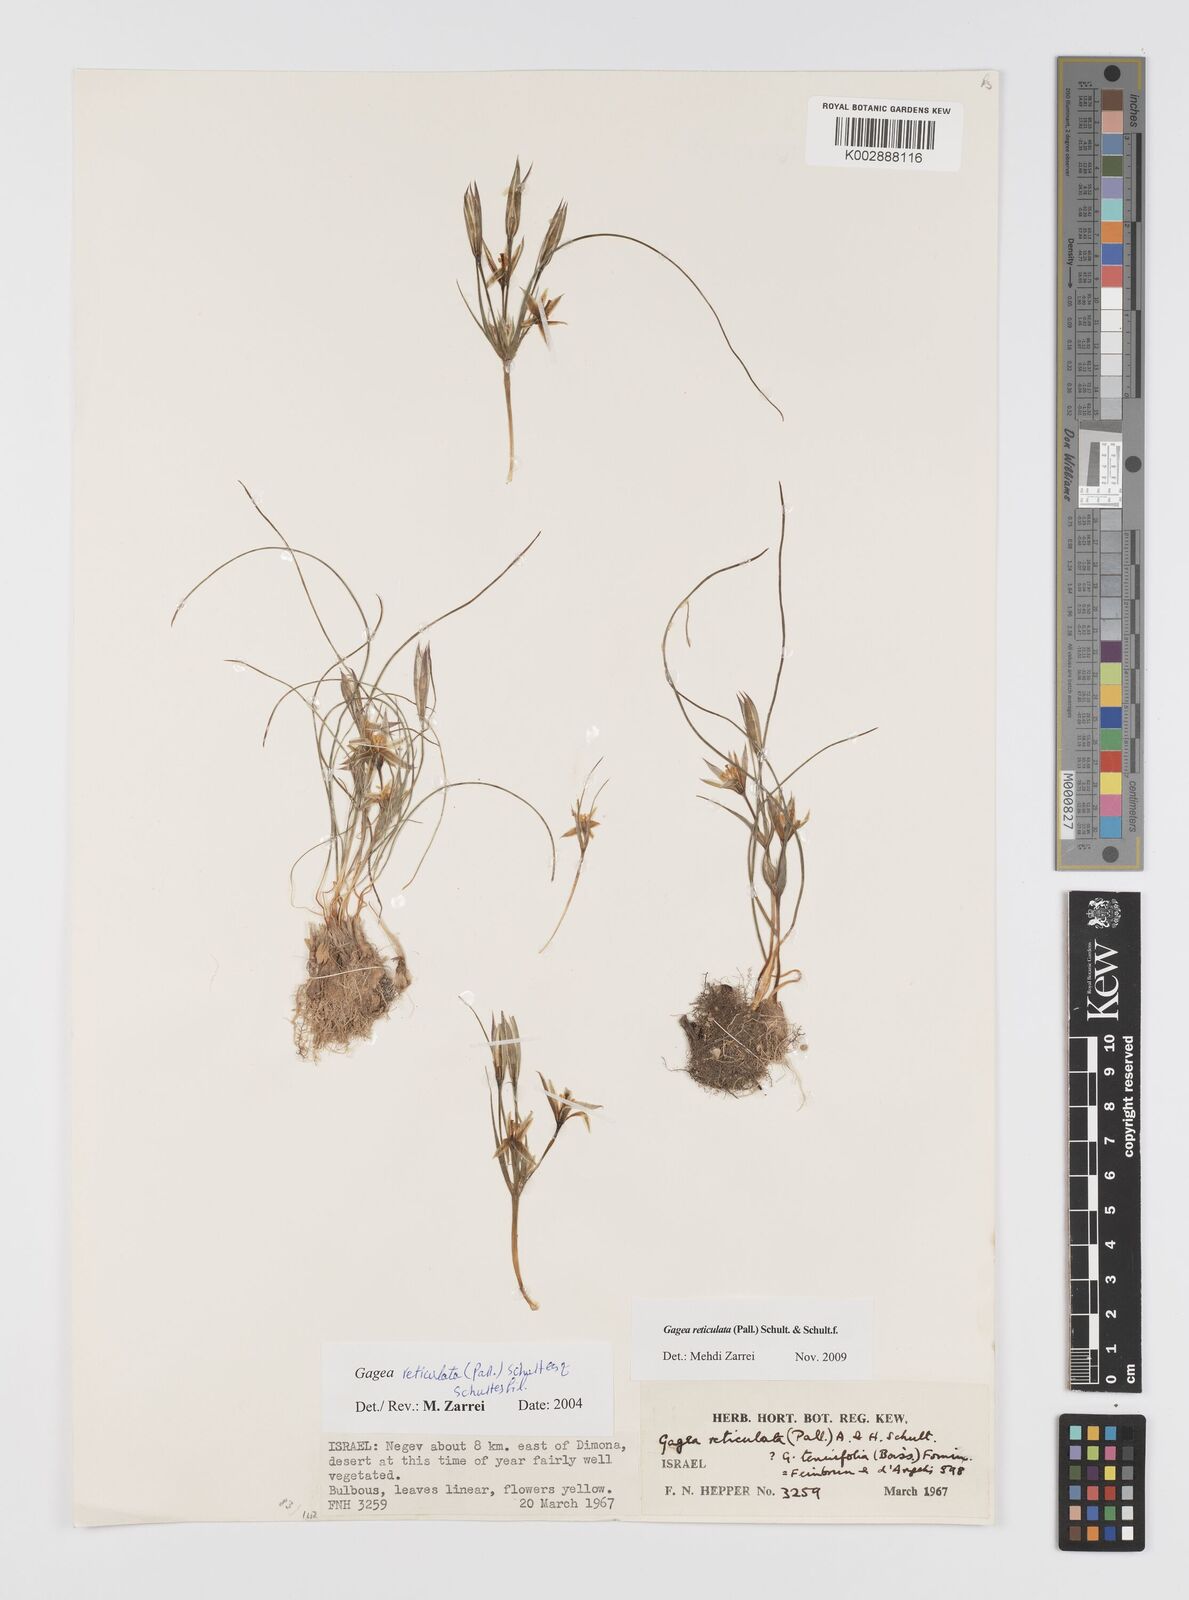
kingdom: Plantae
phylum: Tracheophyta
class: Liliopsida
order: Liliales
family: Liliaceae
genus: Gagea
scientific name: Gagea reticulata
